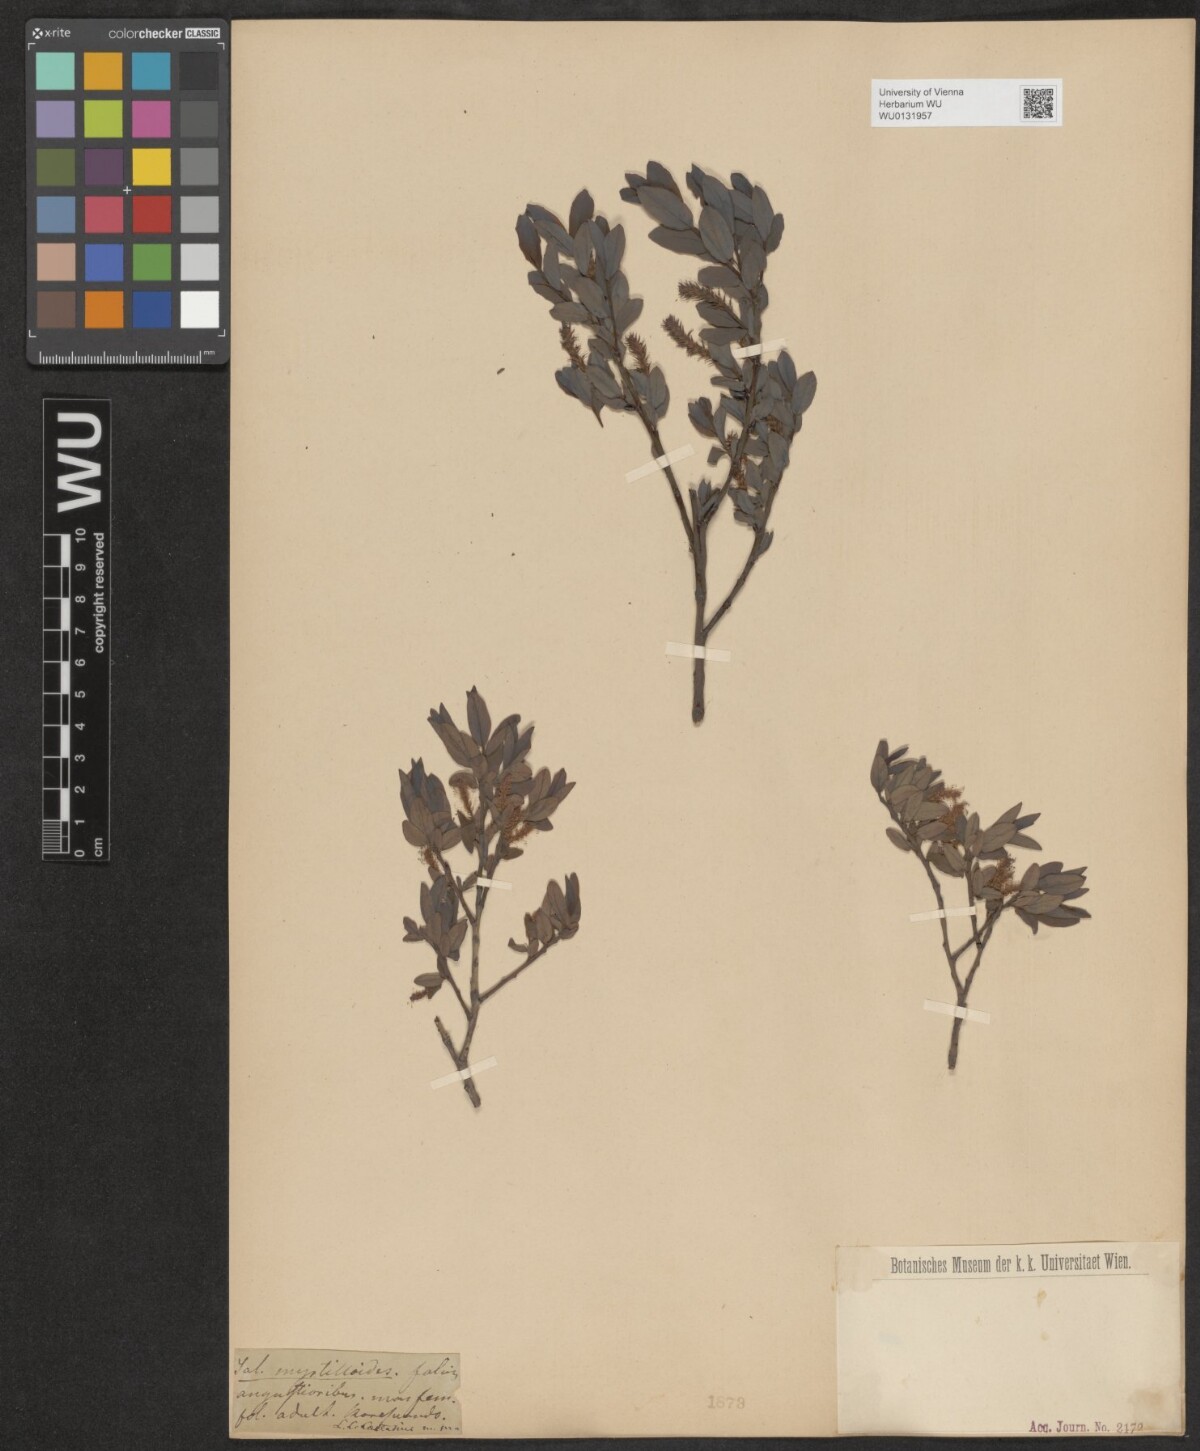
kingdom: Plantae
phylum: Tracheophyta
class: Magnoliopsida
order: Malpighiales
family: Salicaceae
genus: Salix
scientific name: Salix myrtilloides
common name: Myrtle-leaved willow
